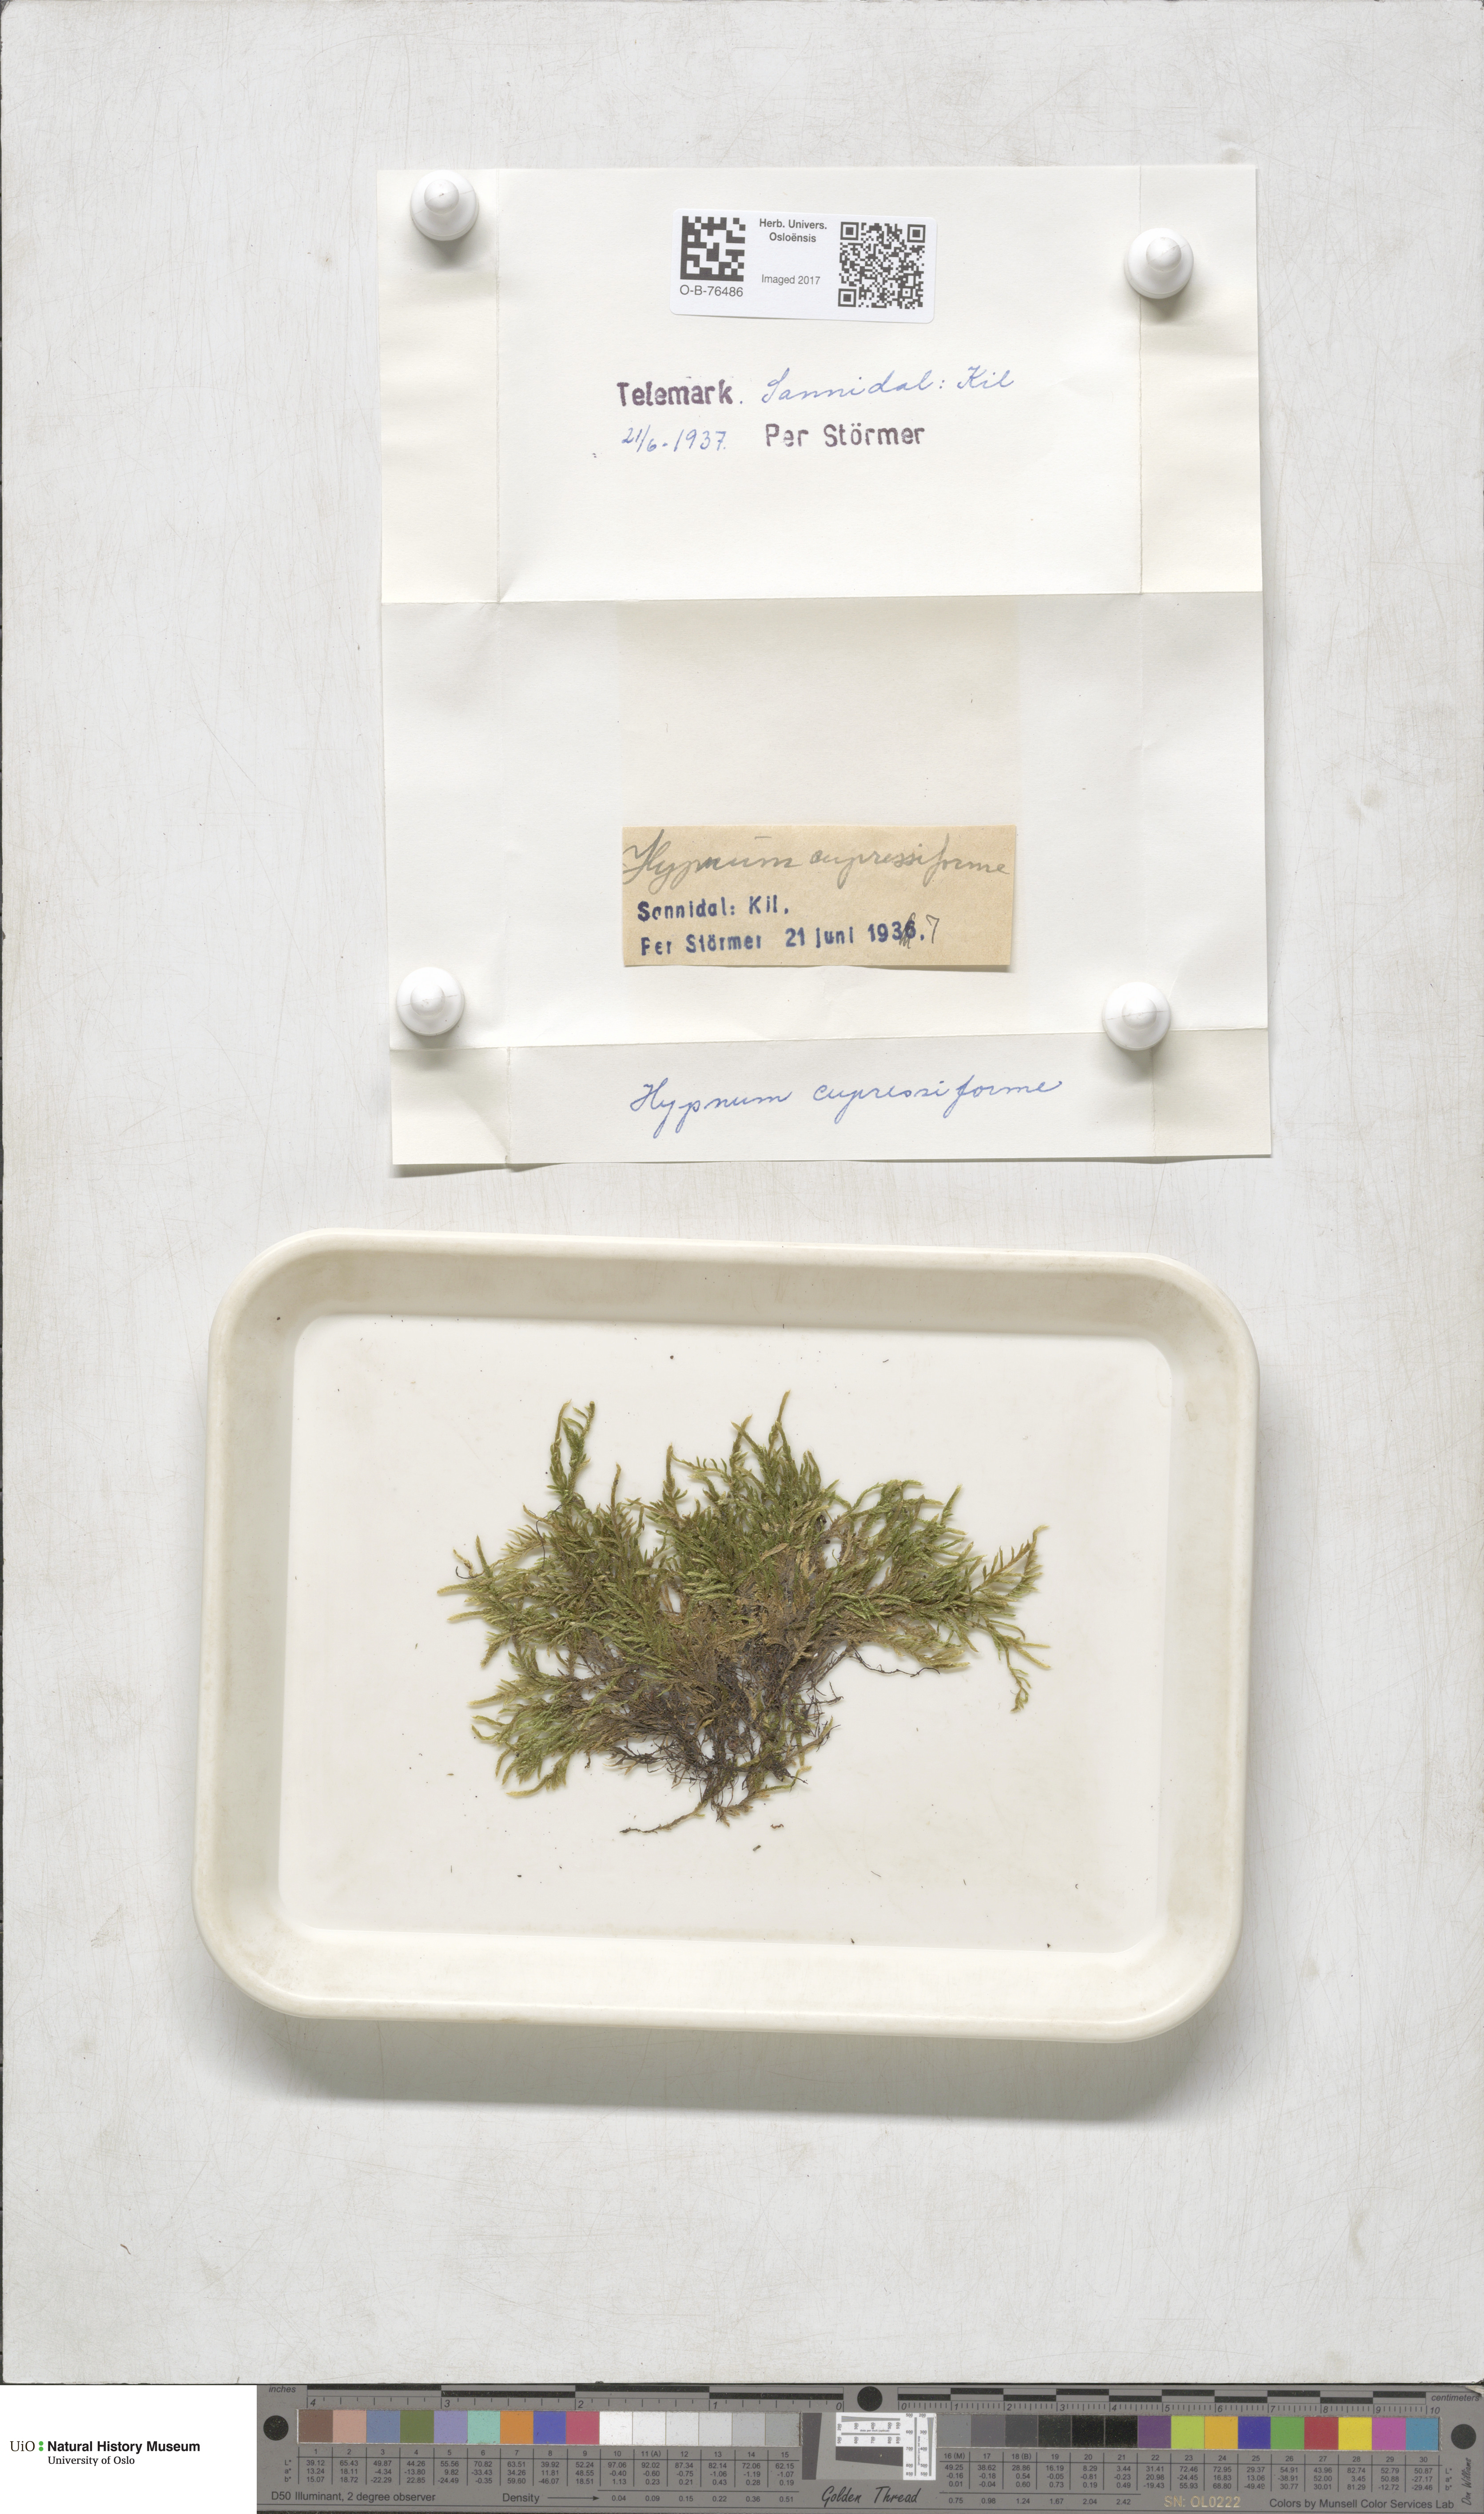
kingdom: Plantae
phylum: Bryophyta
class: Bryopsida
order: Hypnales
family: Hypnaceae
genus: Hypnum
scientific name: Hypnum cupressiforme
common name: Cypress-leaved plait-moss
